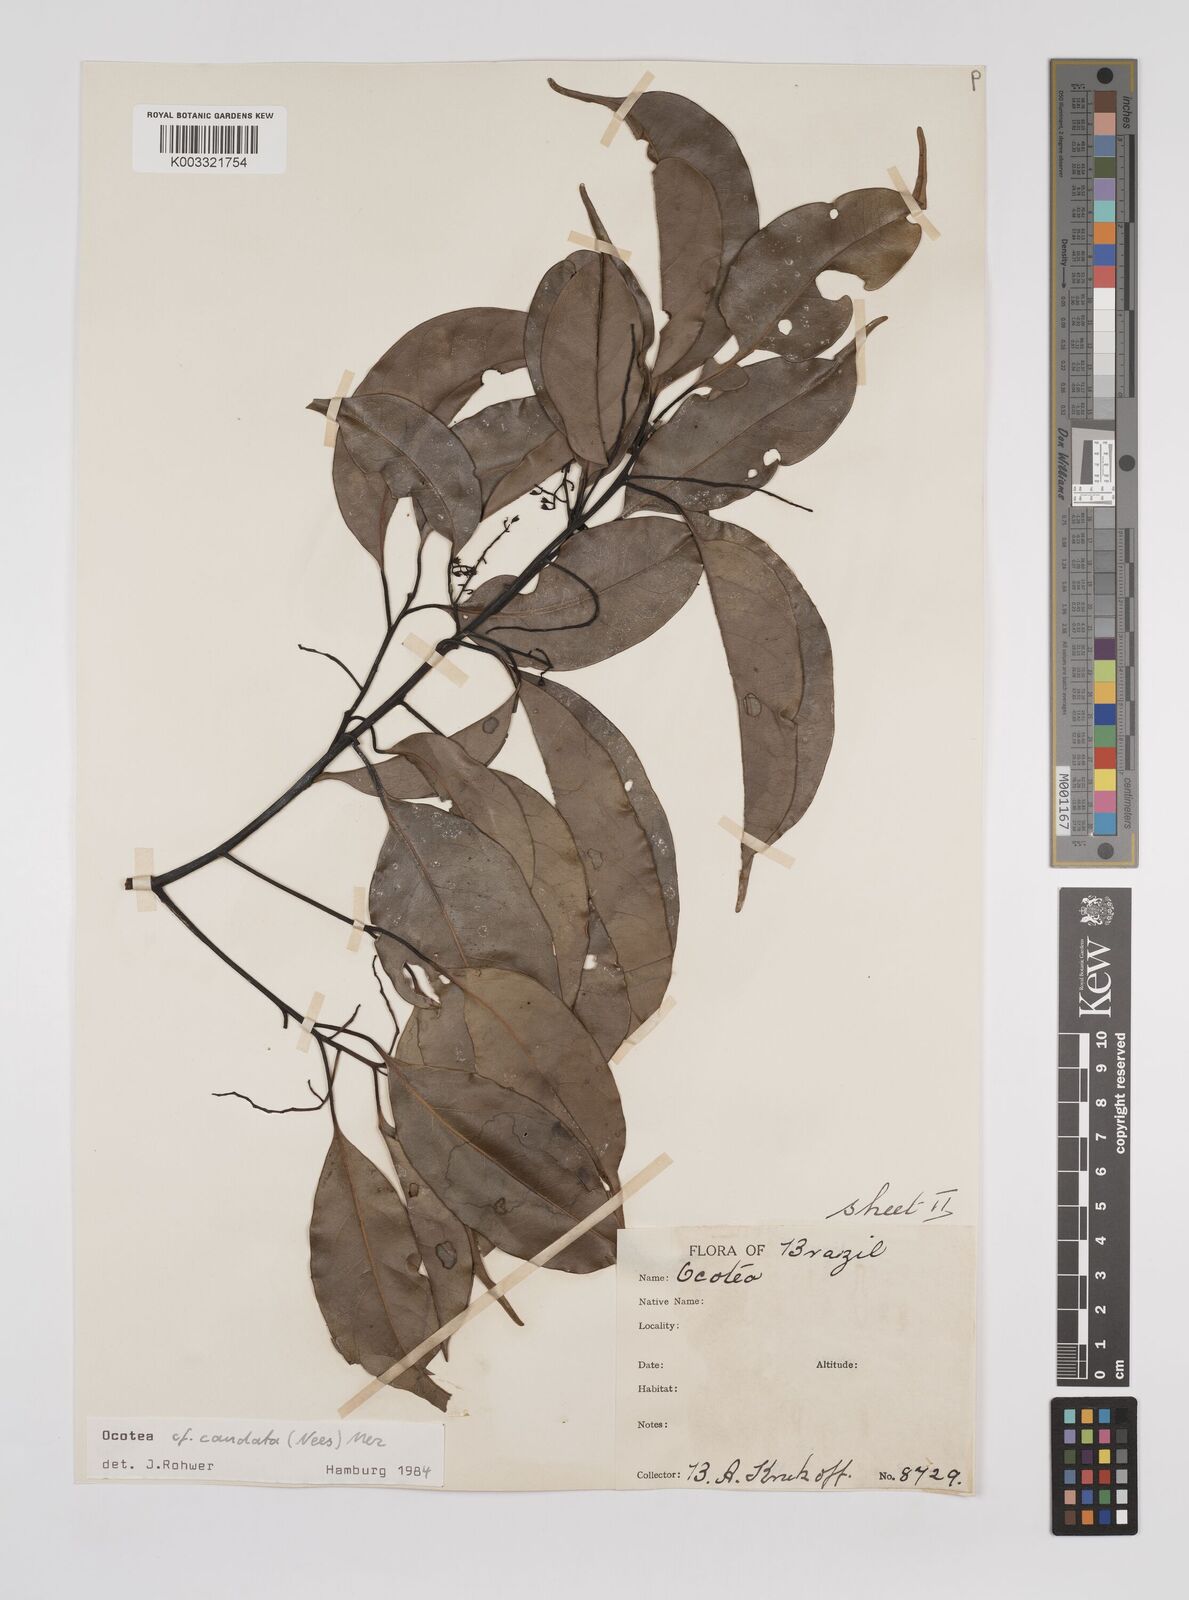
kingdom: Plantae
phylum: Tracheophyta
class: Magnoliopsida
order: Laurales
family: Lauraceae
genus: Ocotea
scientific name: Ocotea leptobotra
